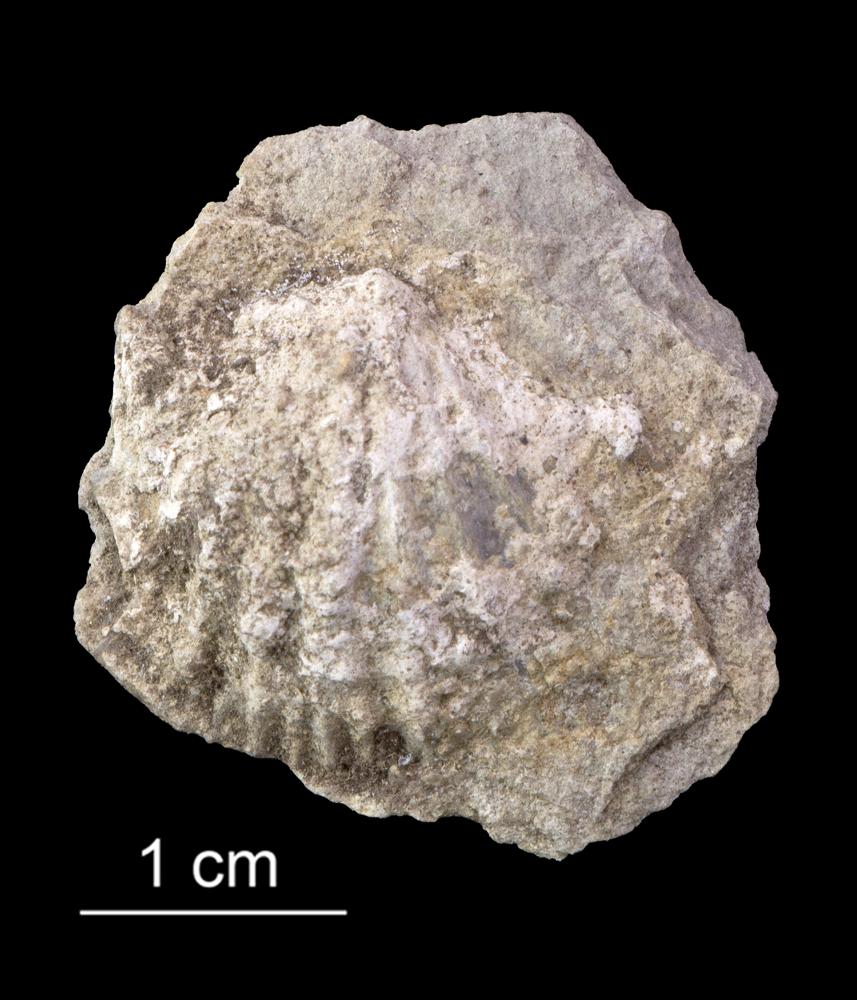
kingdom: Animalia
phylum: Brachiopoda
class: Rhynchonellata
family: Orthidae
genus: Orthambonites
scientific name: Orthambonites Orthis calligramma
